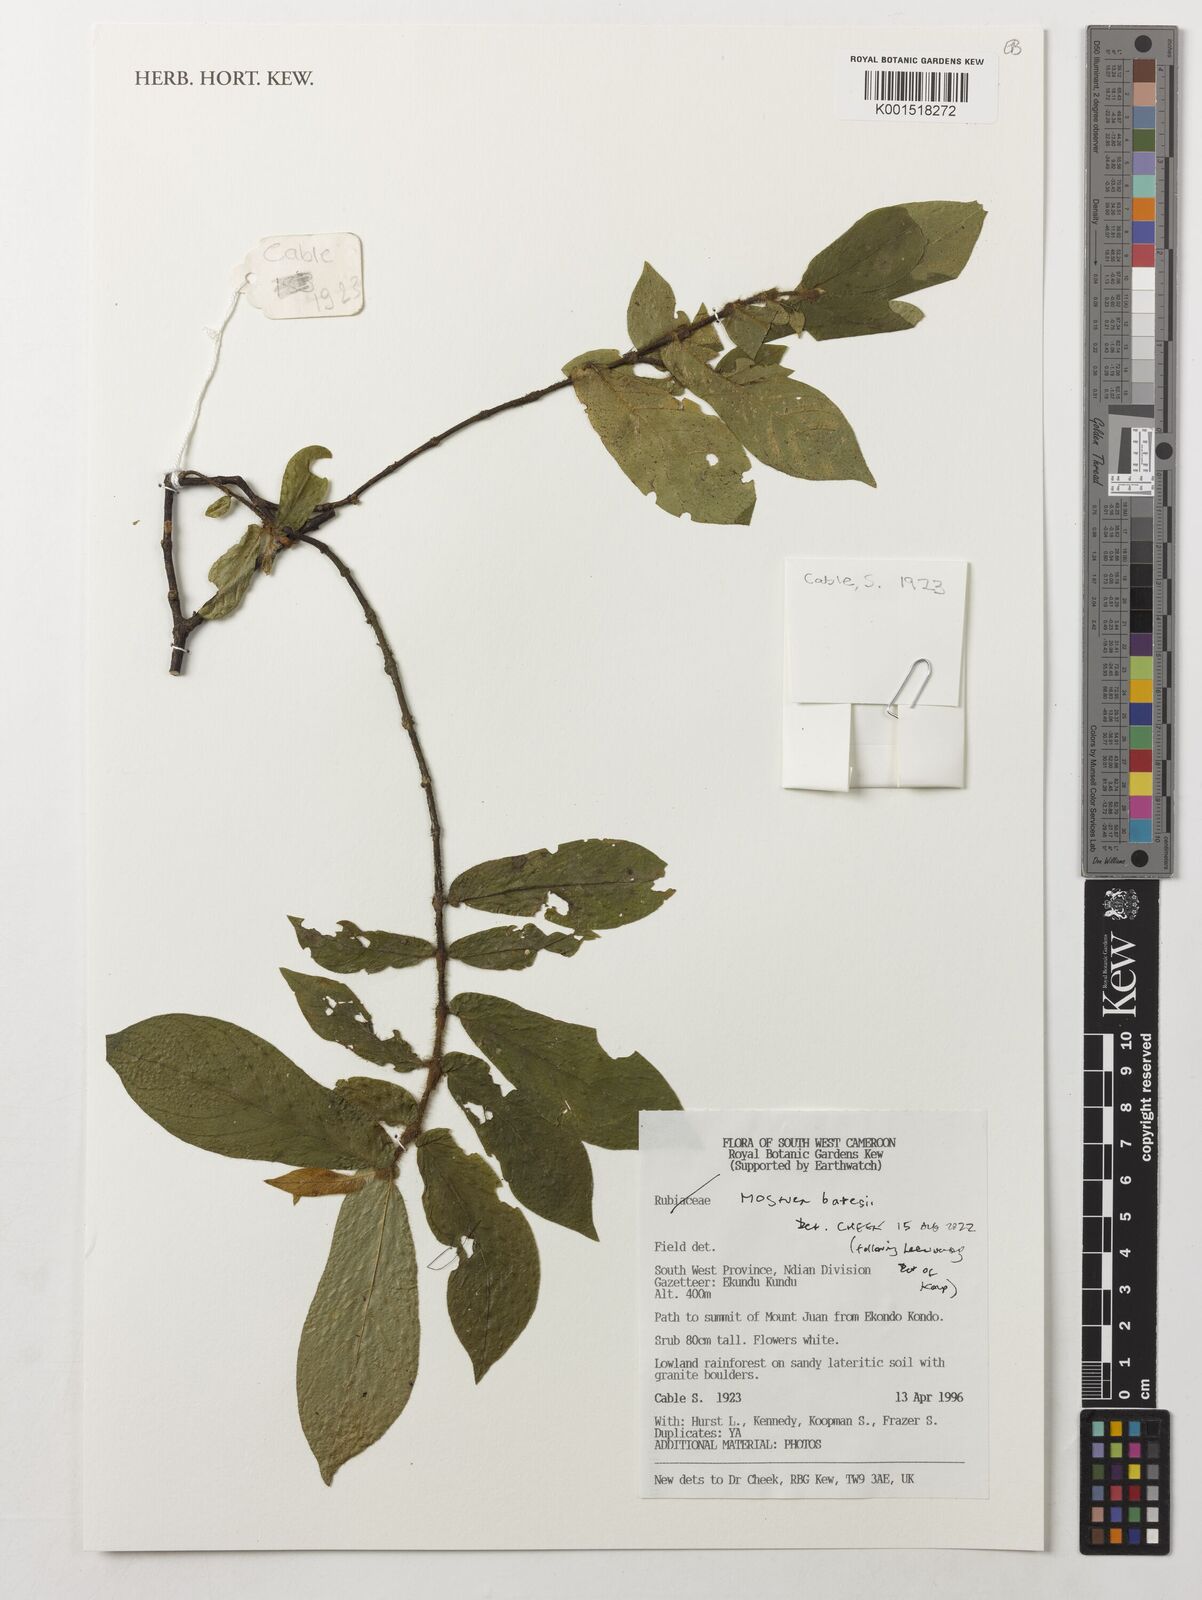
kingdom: Plantae
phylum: Tracheophyta
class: Magnoliopsida
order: Gentianales
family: Gelsemiaceae
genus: Mostuea
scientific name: Mostuea batesii
